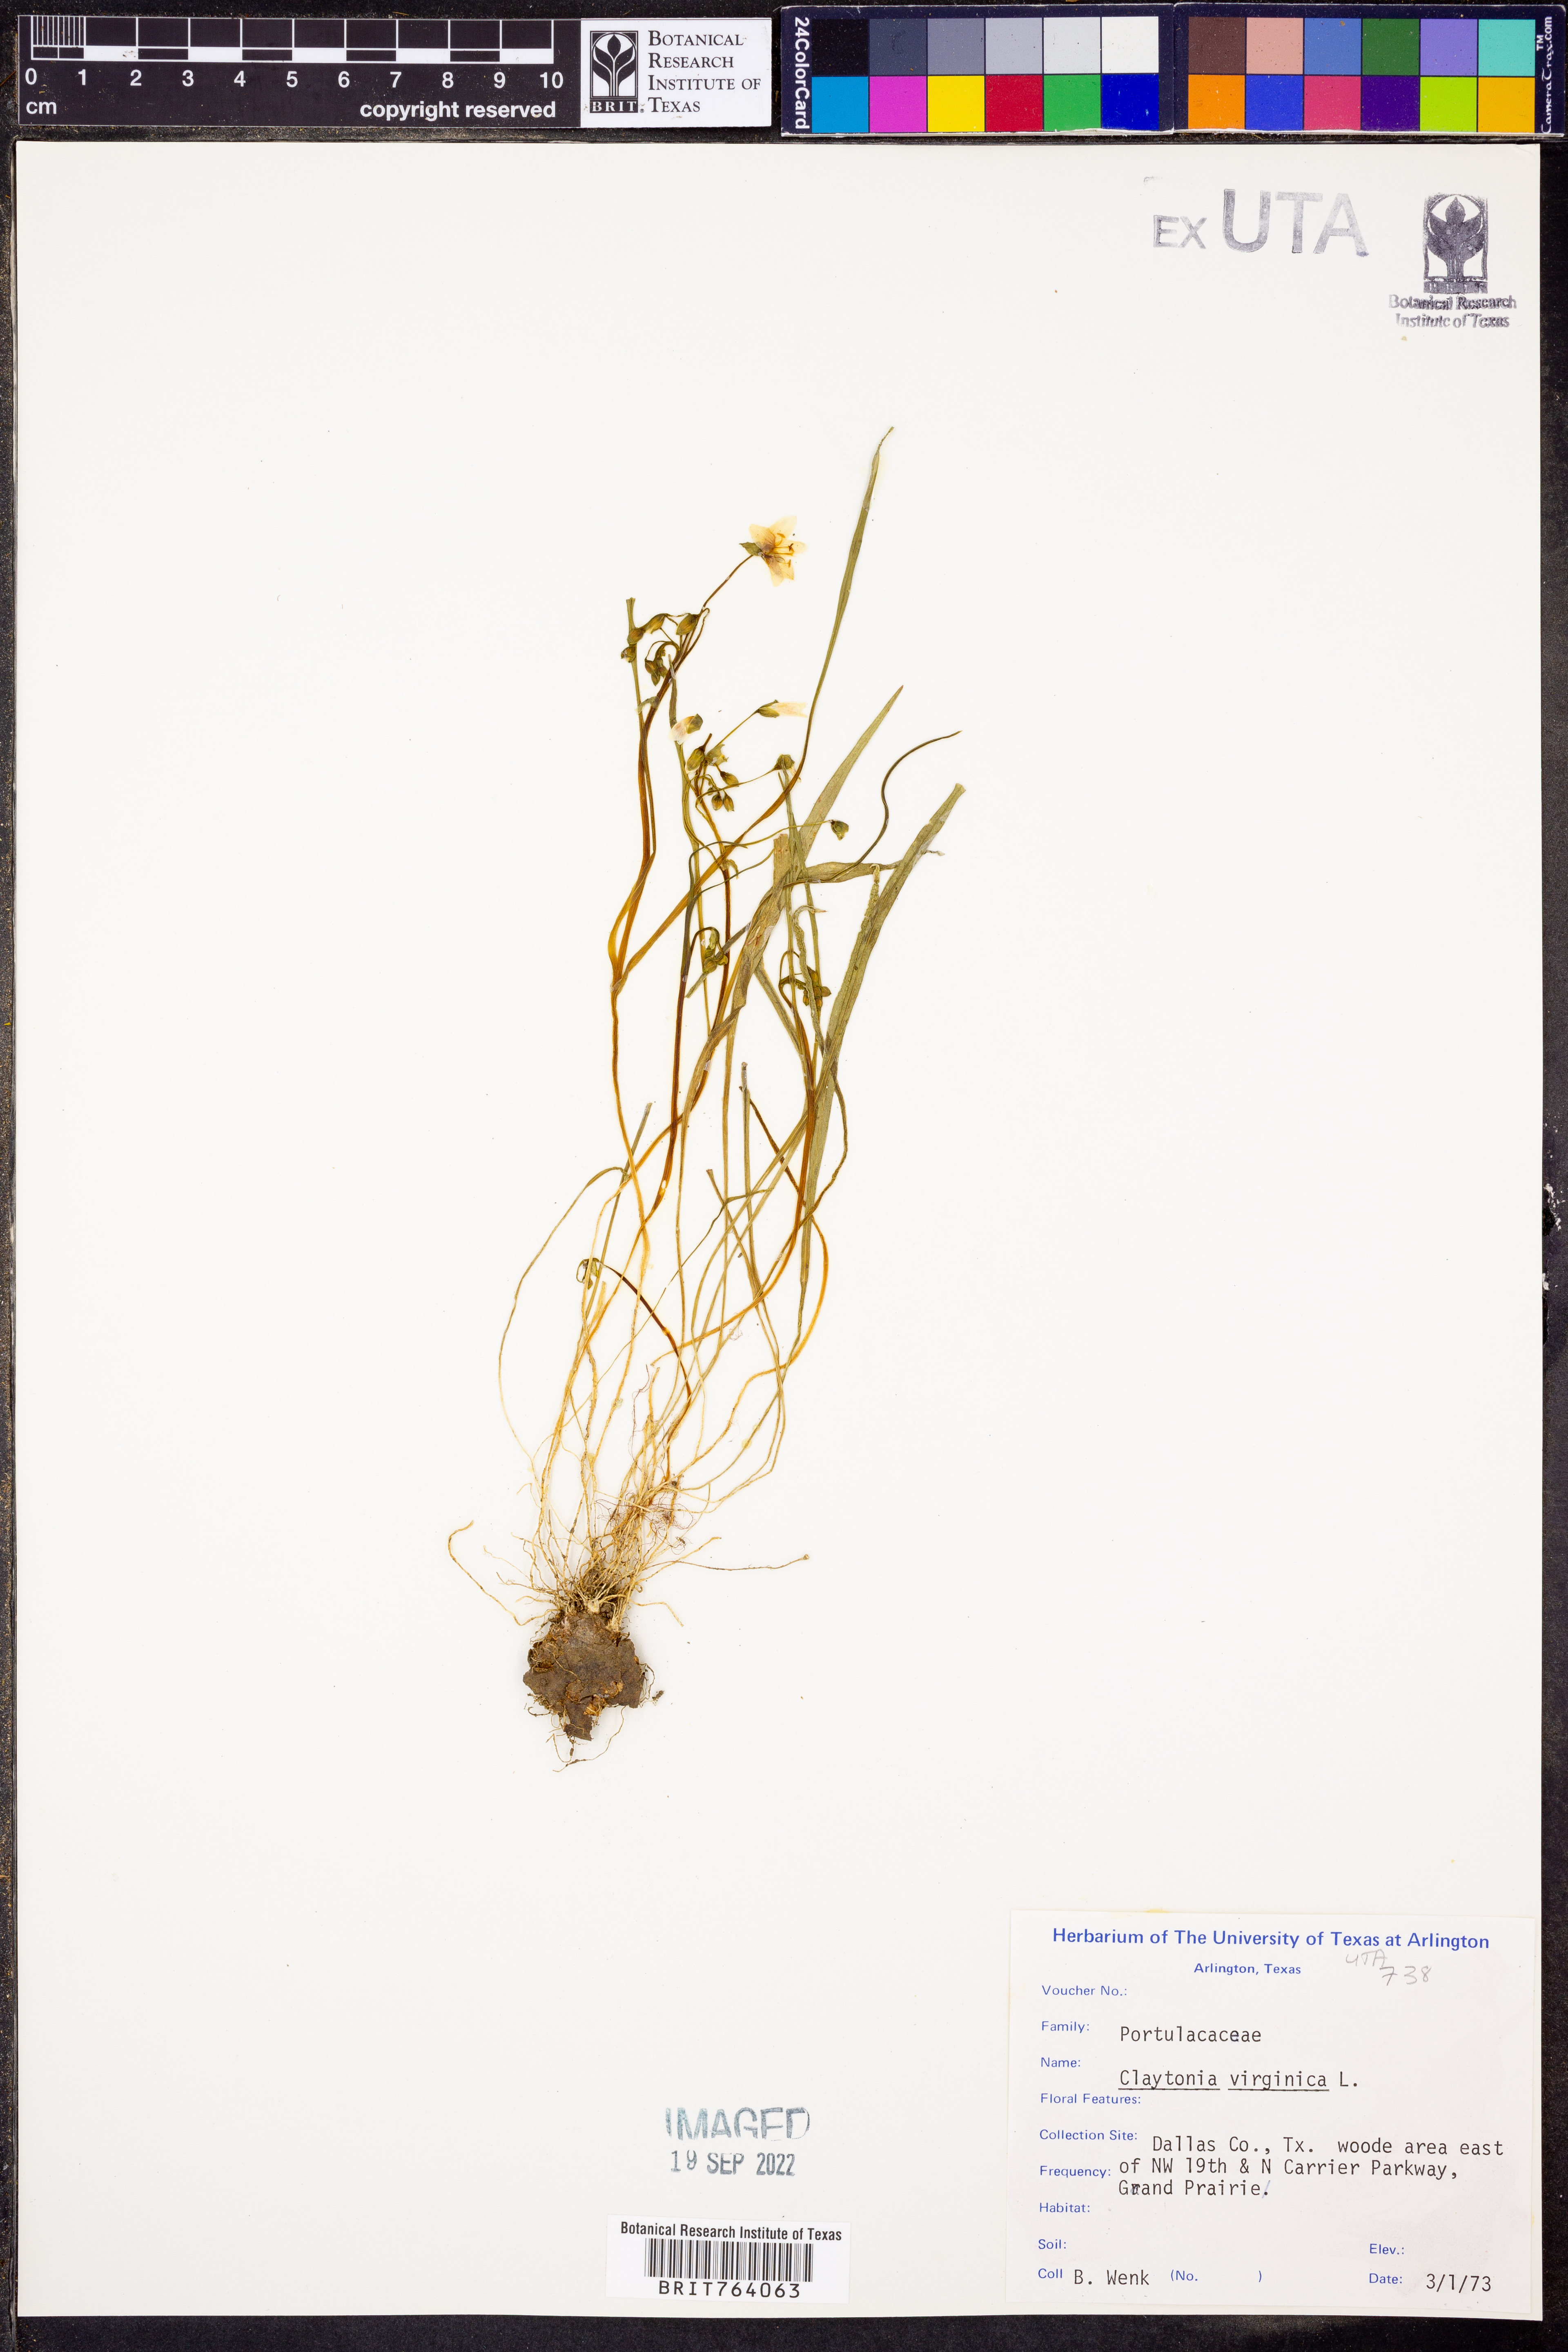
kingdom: Plantae
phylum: Tracheophyta
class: Magnoliopsida
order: Caryophyllales
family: Montiaceae
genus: Claytonia
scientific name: Claytonia virginica
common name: Virginia springbeauty
